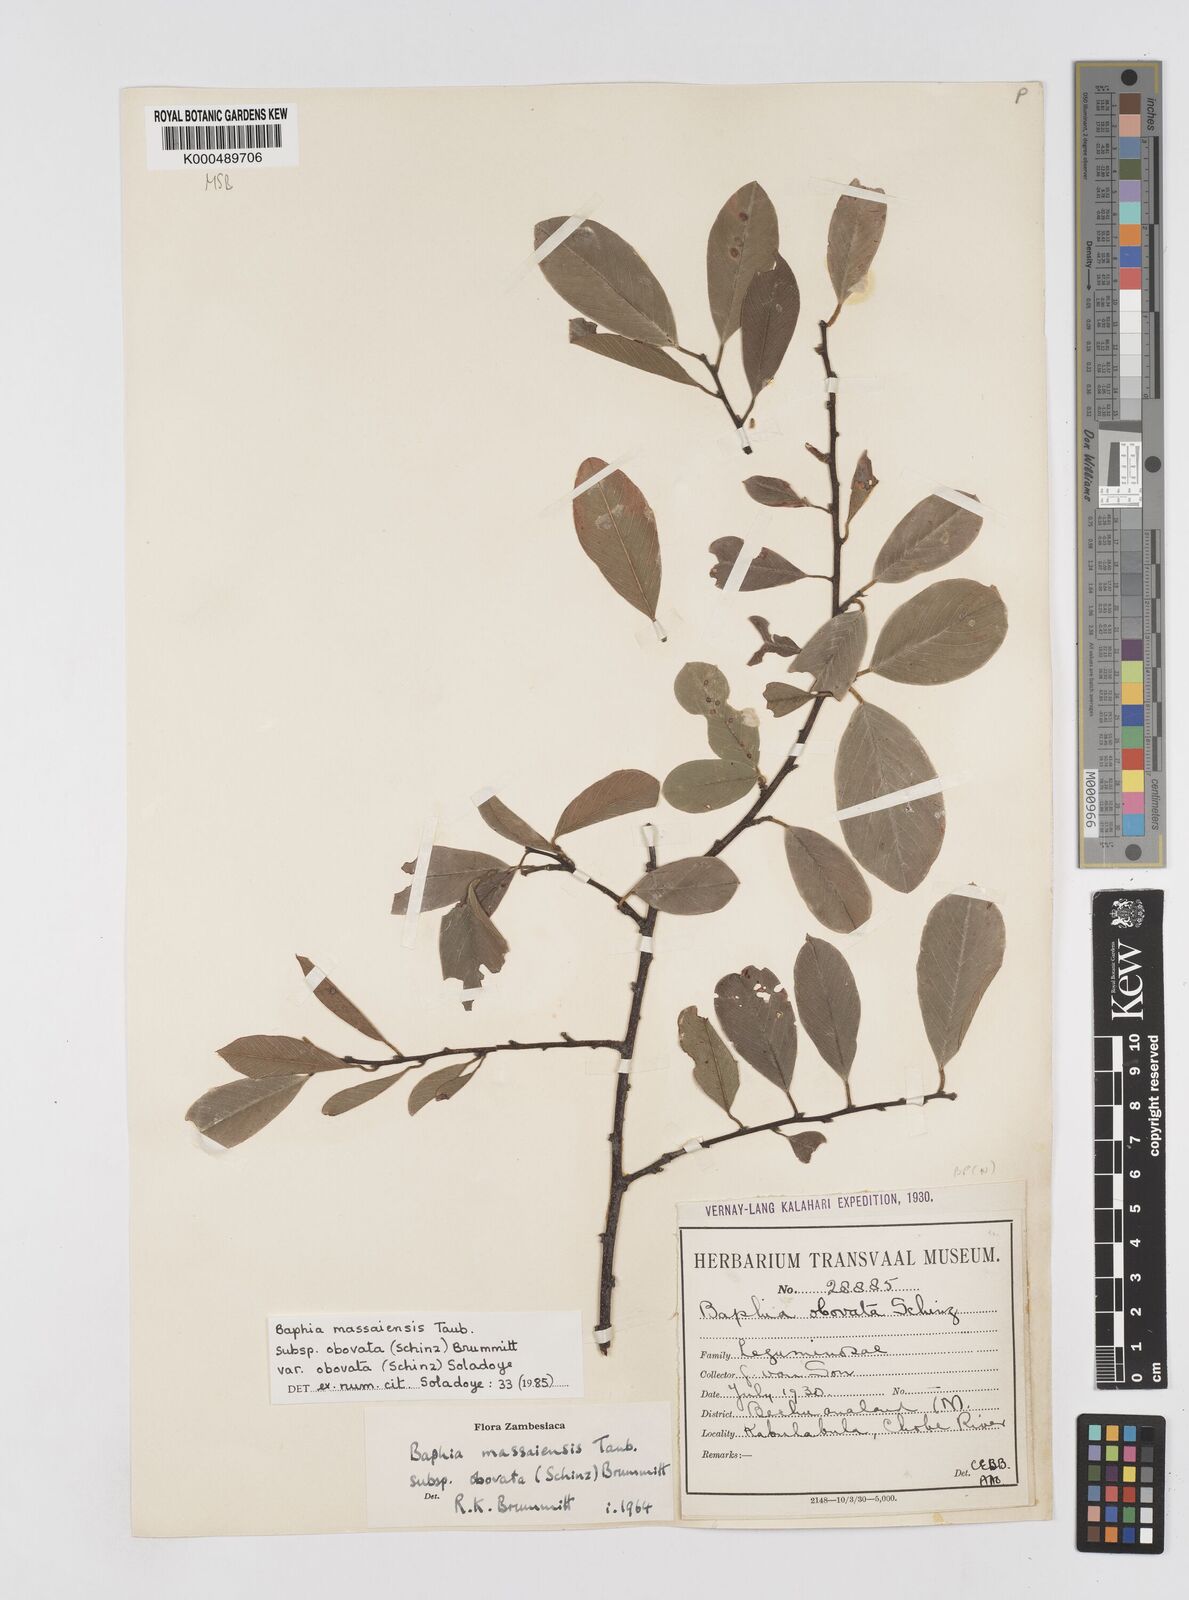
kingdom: Plantae
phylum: Tracheophyta
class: Magnoliopsida
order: Fabales
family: Fabaceae
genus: Baphia
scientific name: Baphia massaiensis
